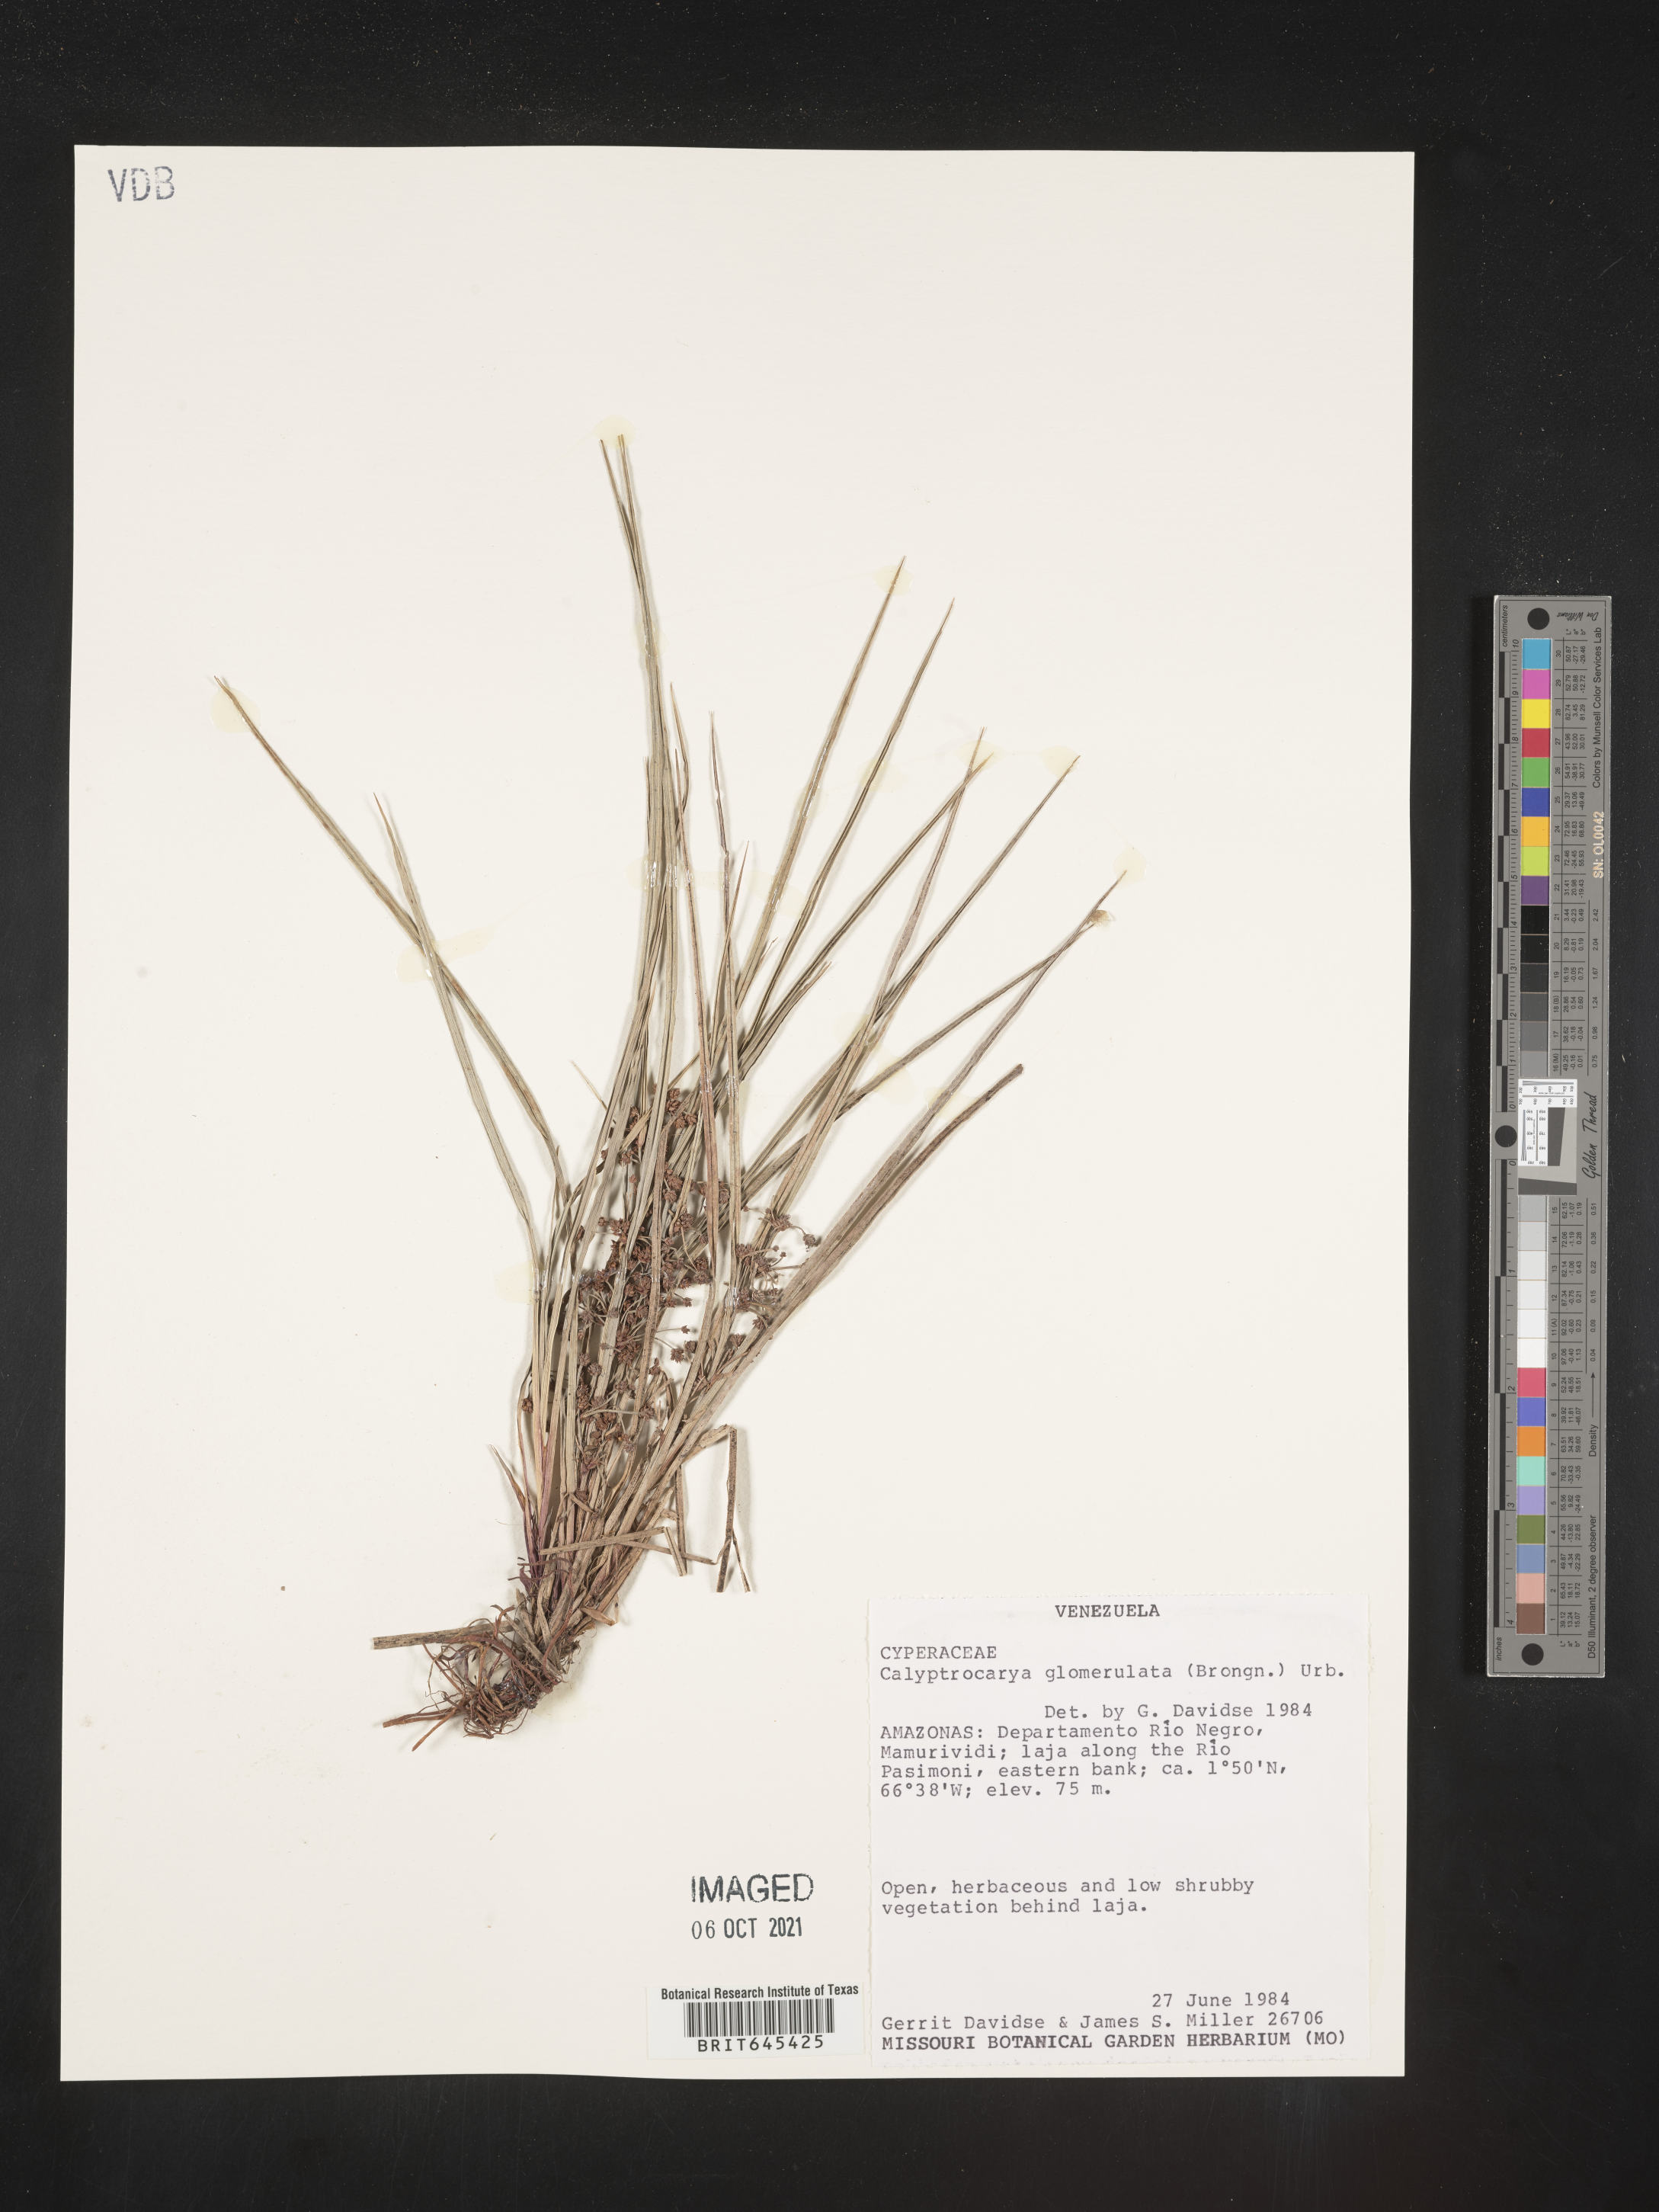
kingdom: Plantae
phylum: Tracheophyta
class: Liliopsida
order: Poales
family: Cyperaceae
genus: Calyptrocarya
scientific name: Calyptrocarya glomerulata
